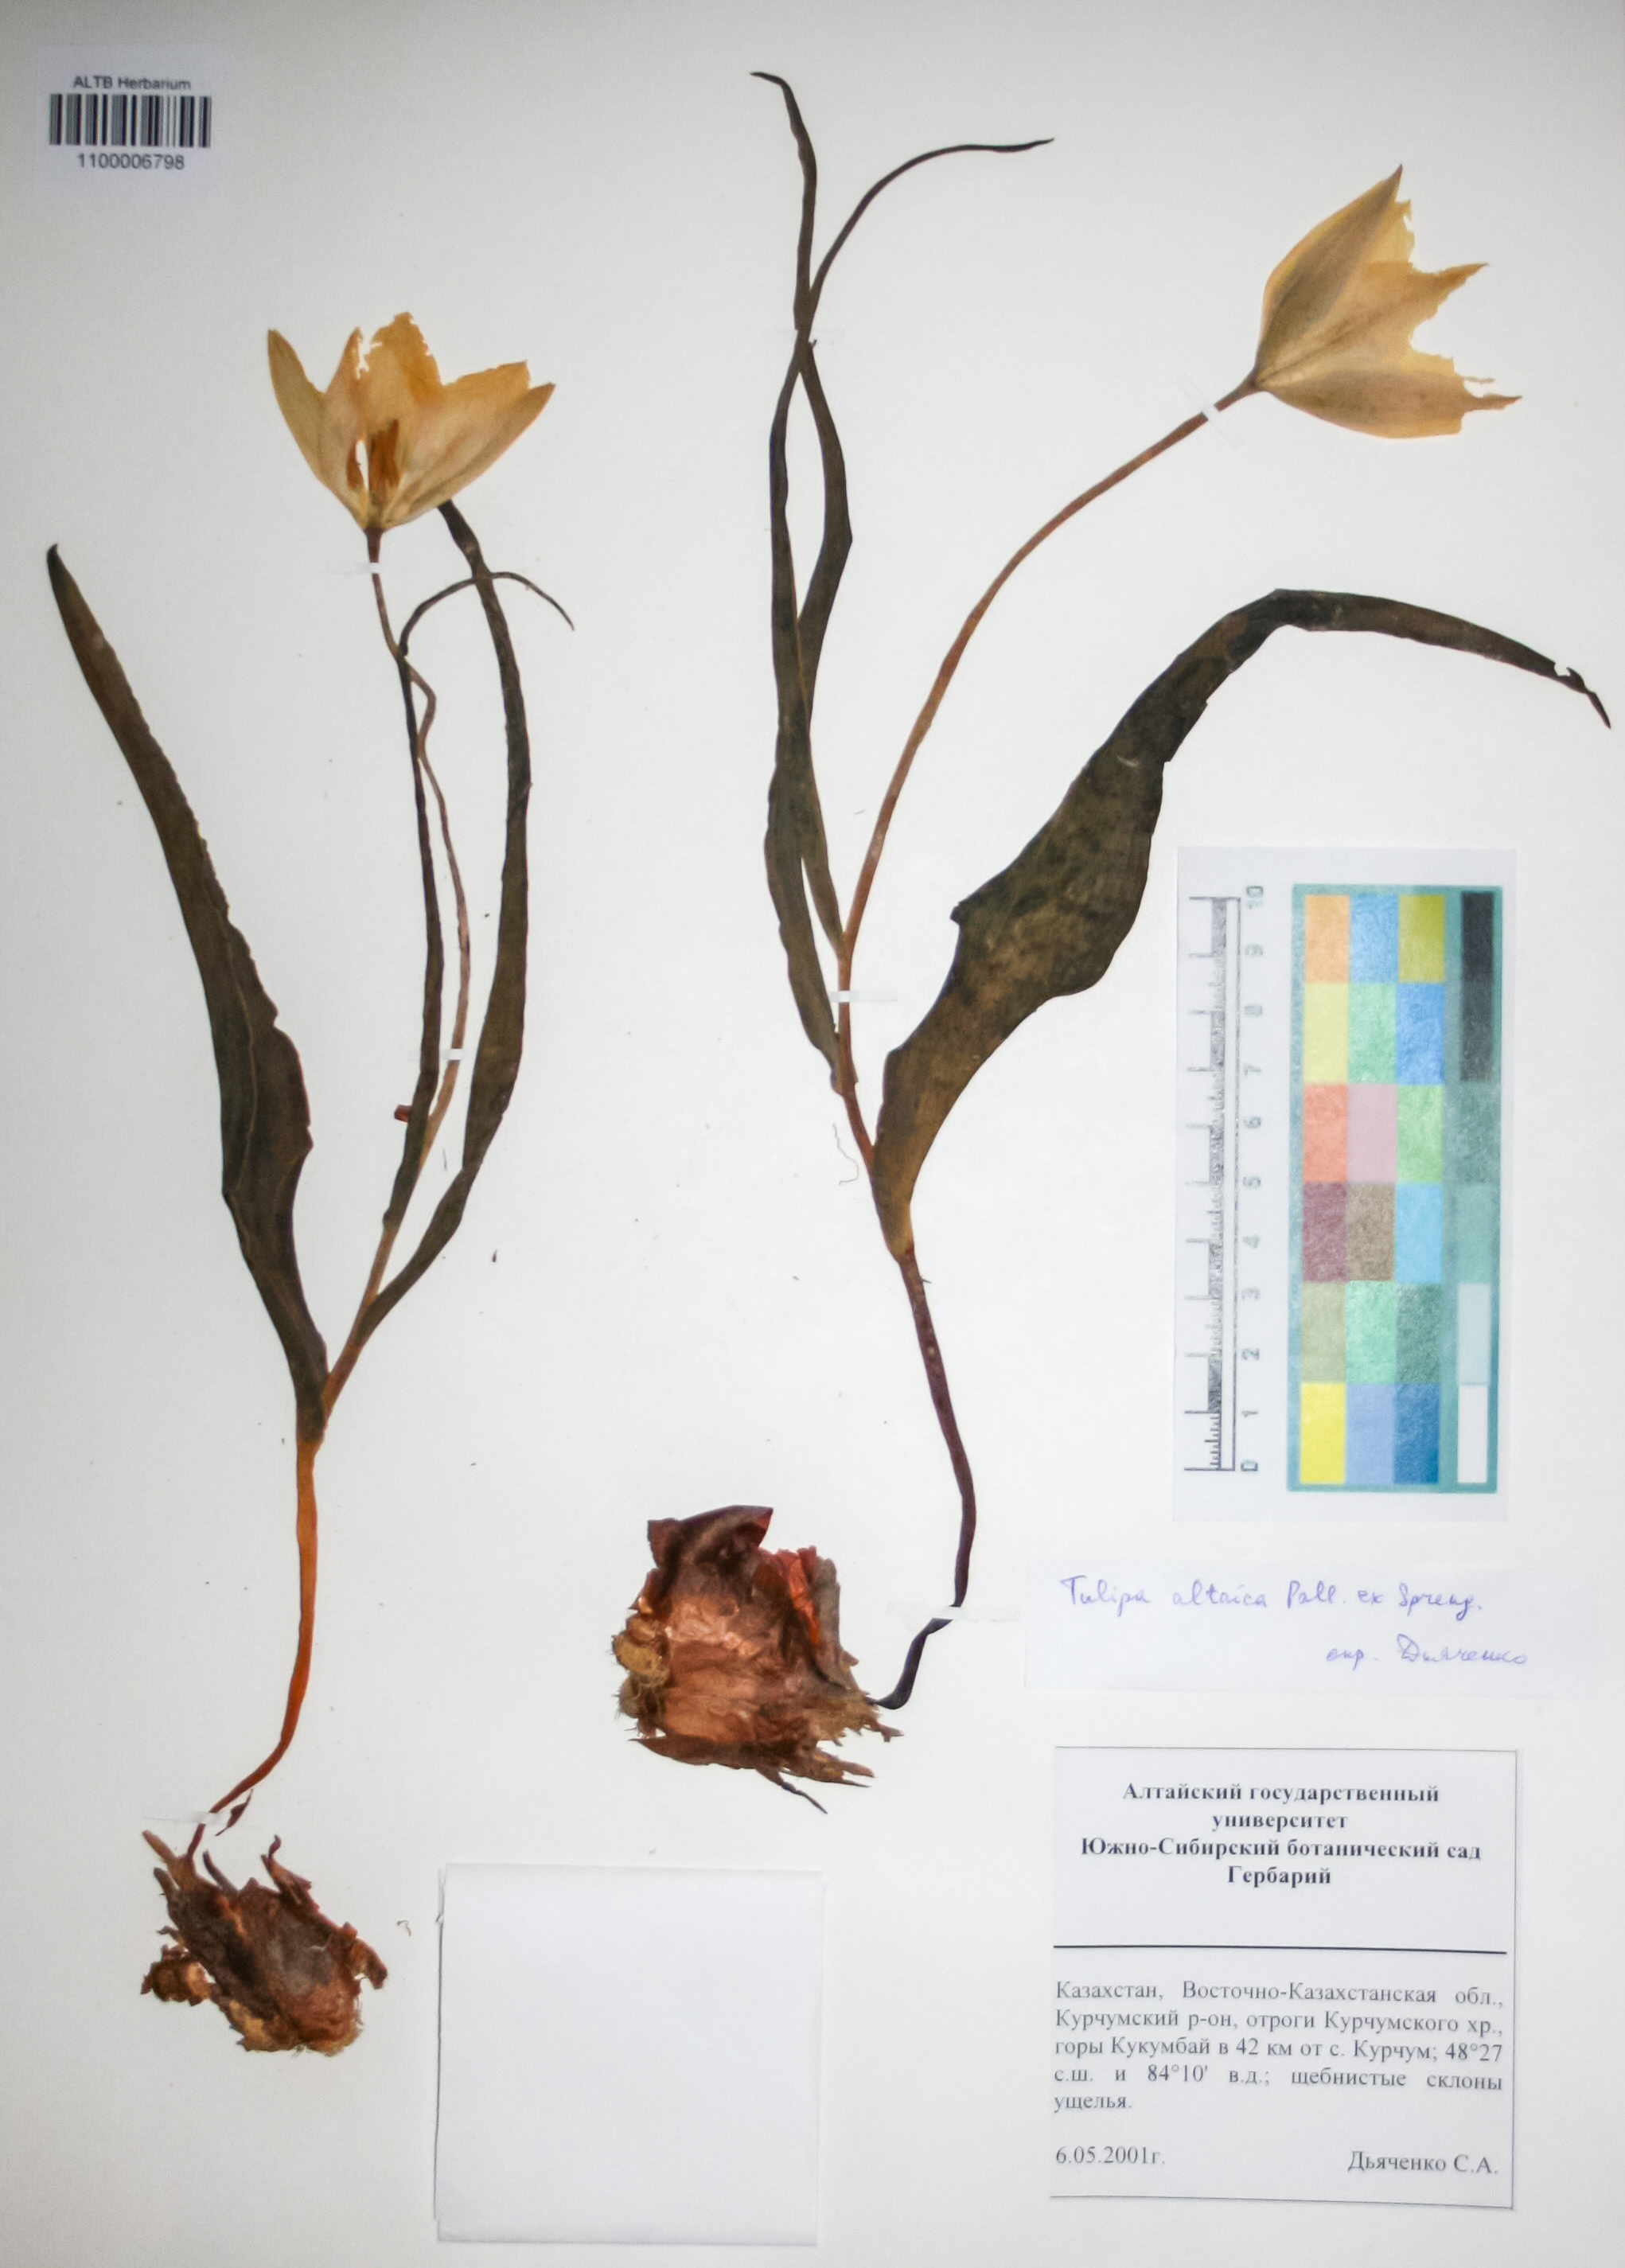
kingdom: Plantae
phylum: Tracheophyta
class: Liliopsida
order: Liliales
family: Liliaceae
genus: Tulipa
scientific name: Tulipa altaica
